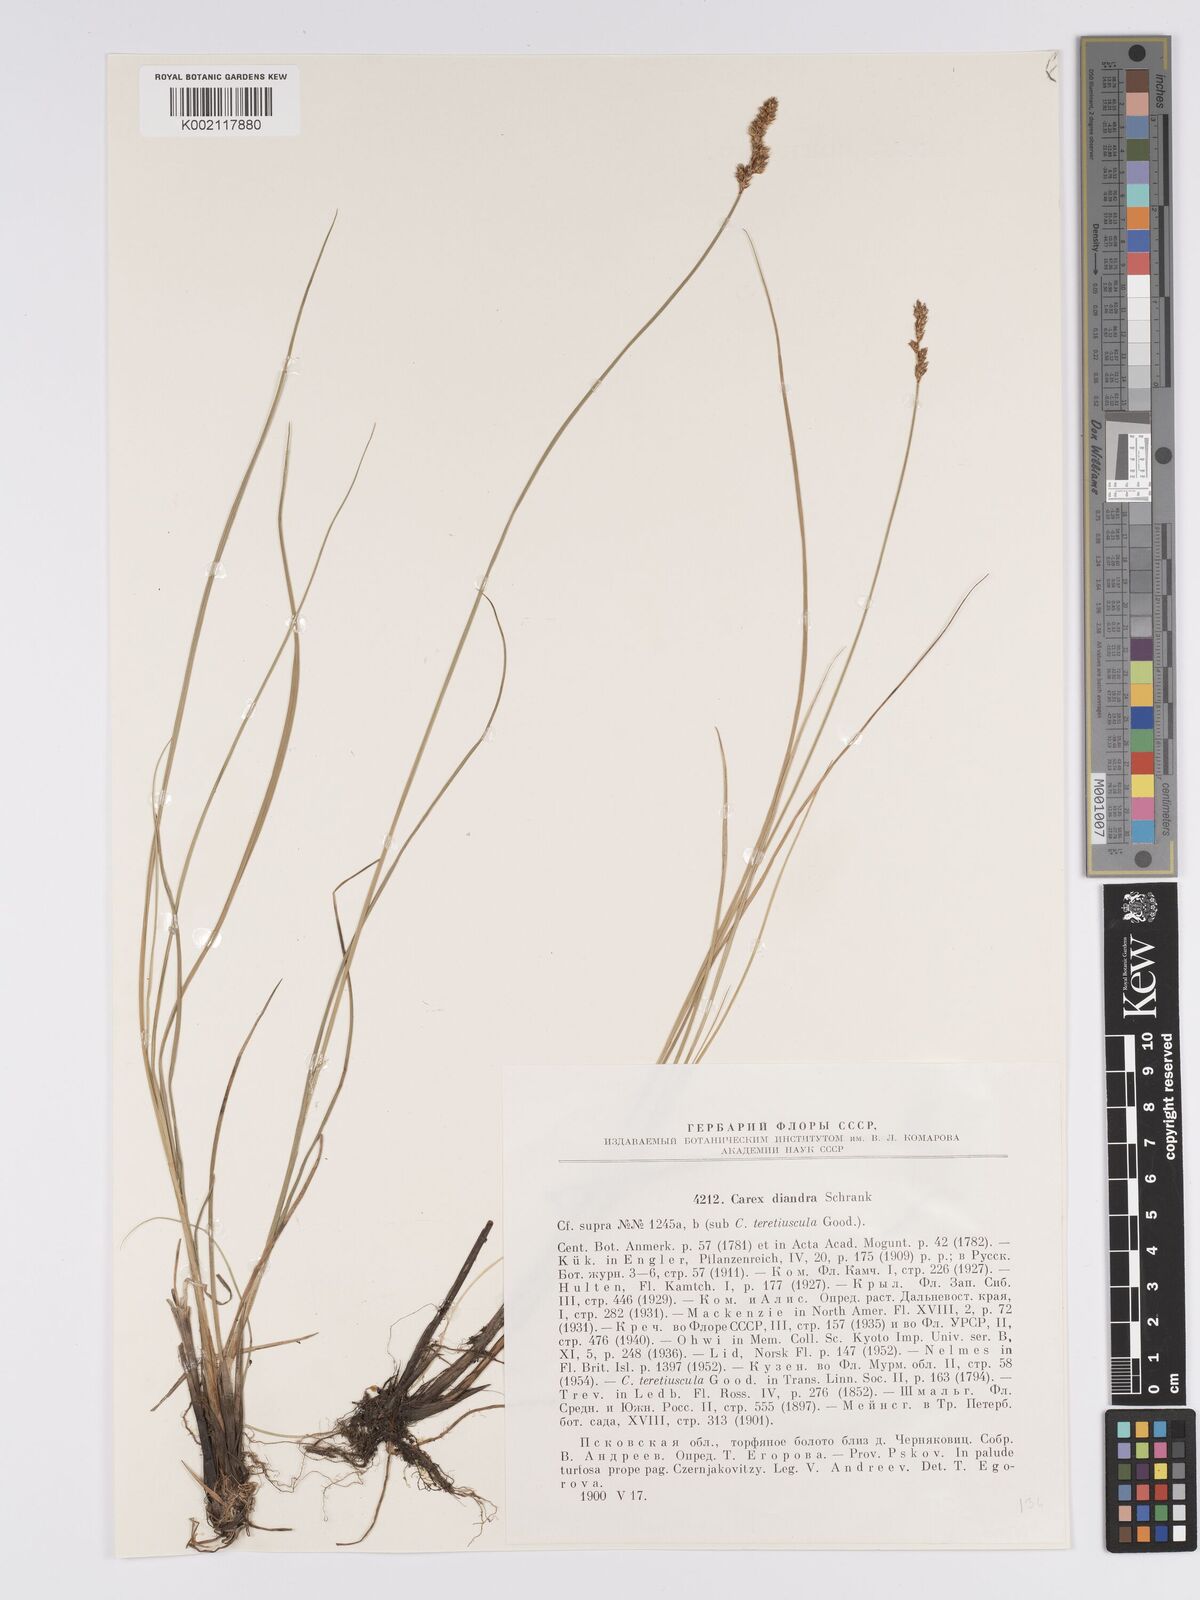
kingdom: Plantae
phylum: Tracheophyta
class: Liliopsida
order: Poales
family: Cyperaceae
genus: Carex
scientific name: Carex diandra
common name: Lesser tussock-sedge
